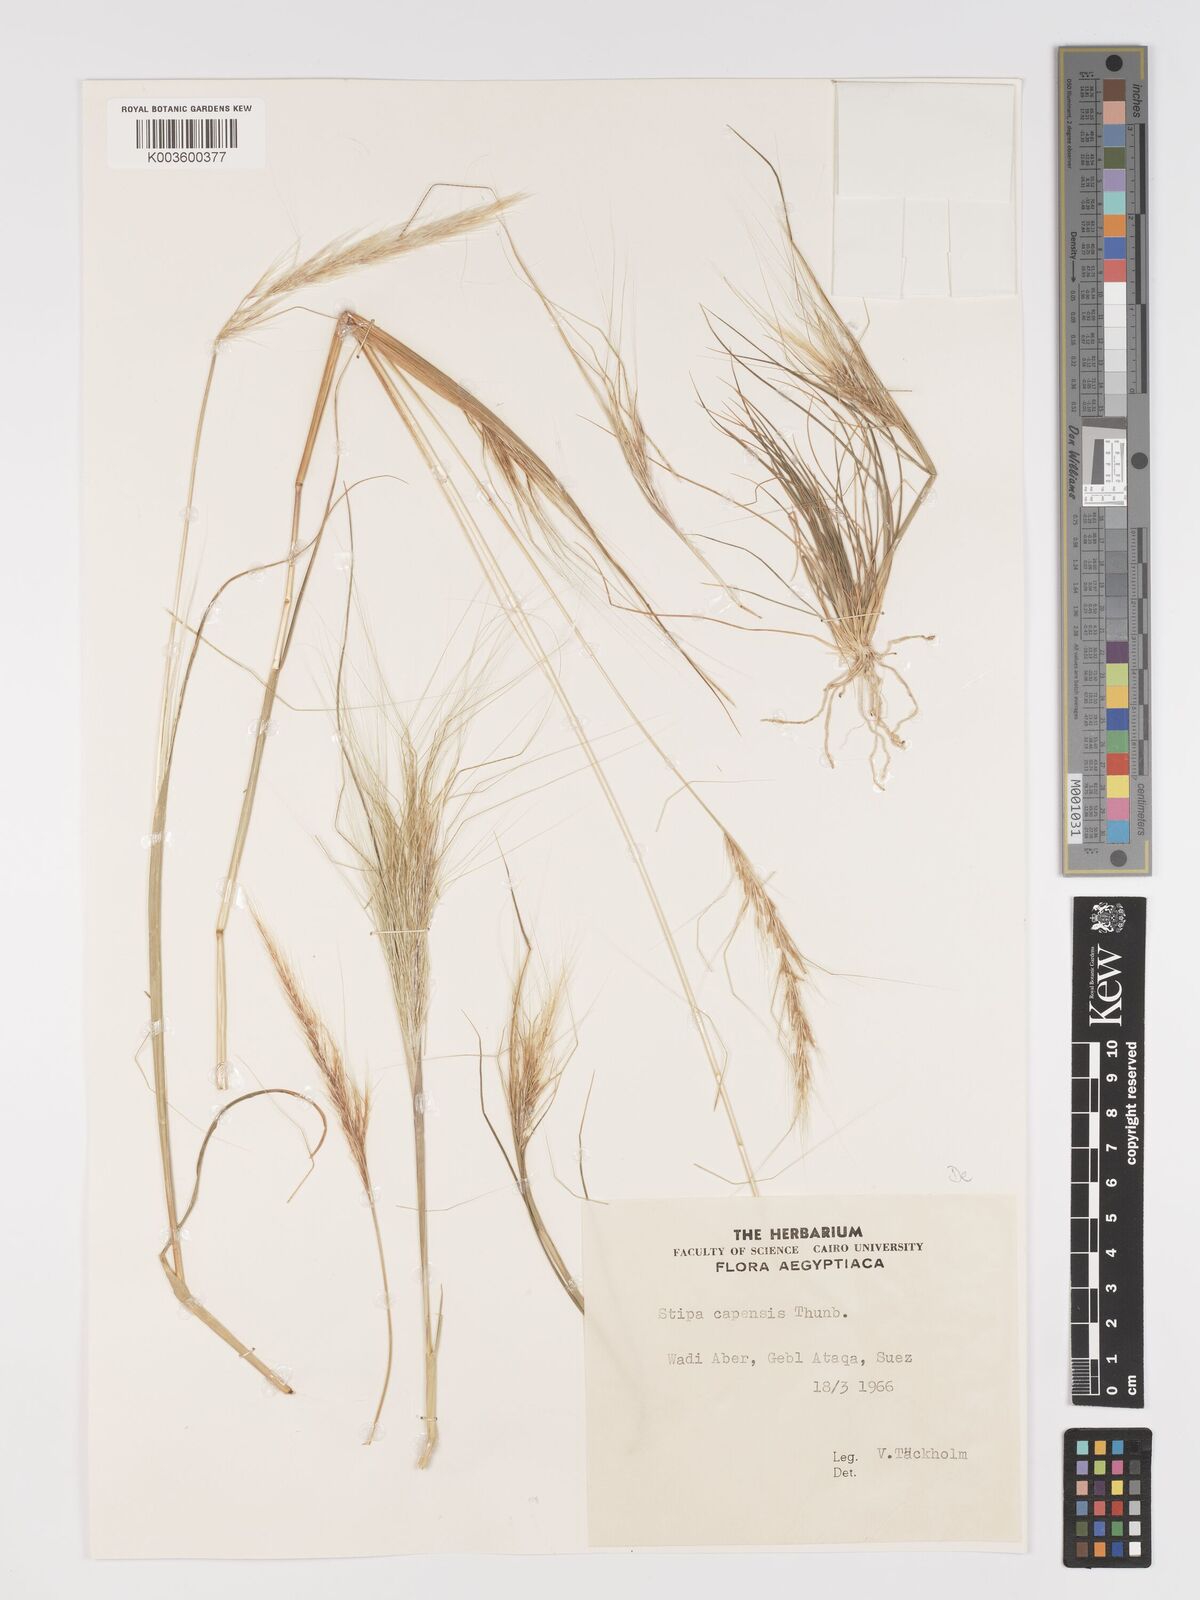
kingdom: Plantae
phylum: Tracheophyta
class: Liliopsida
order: Poales
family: Poaceae
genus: Stipellula
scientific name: Stipellula capensis
